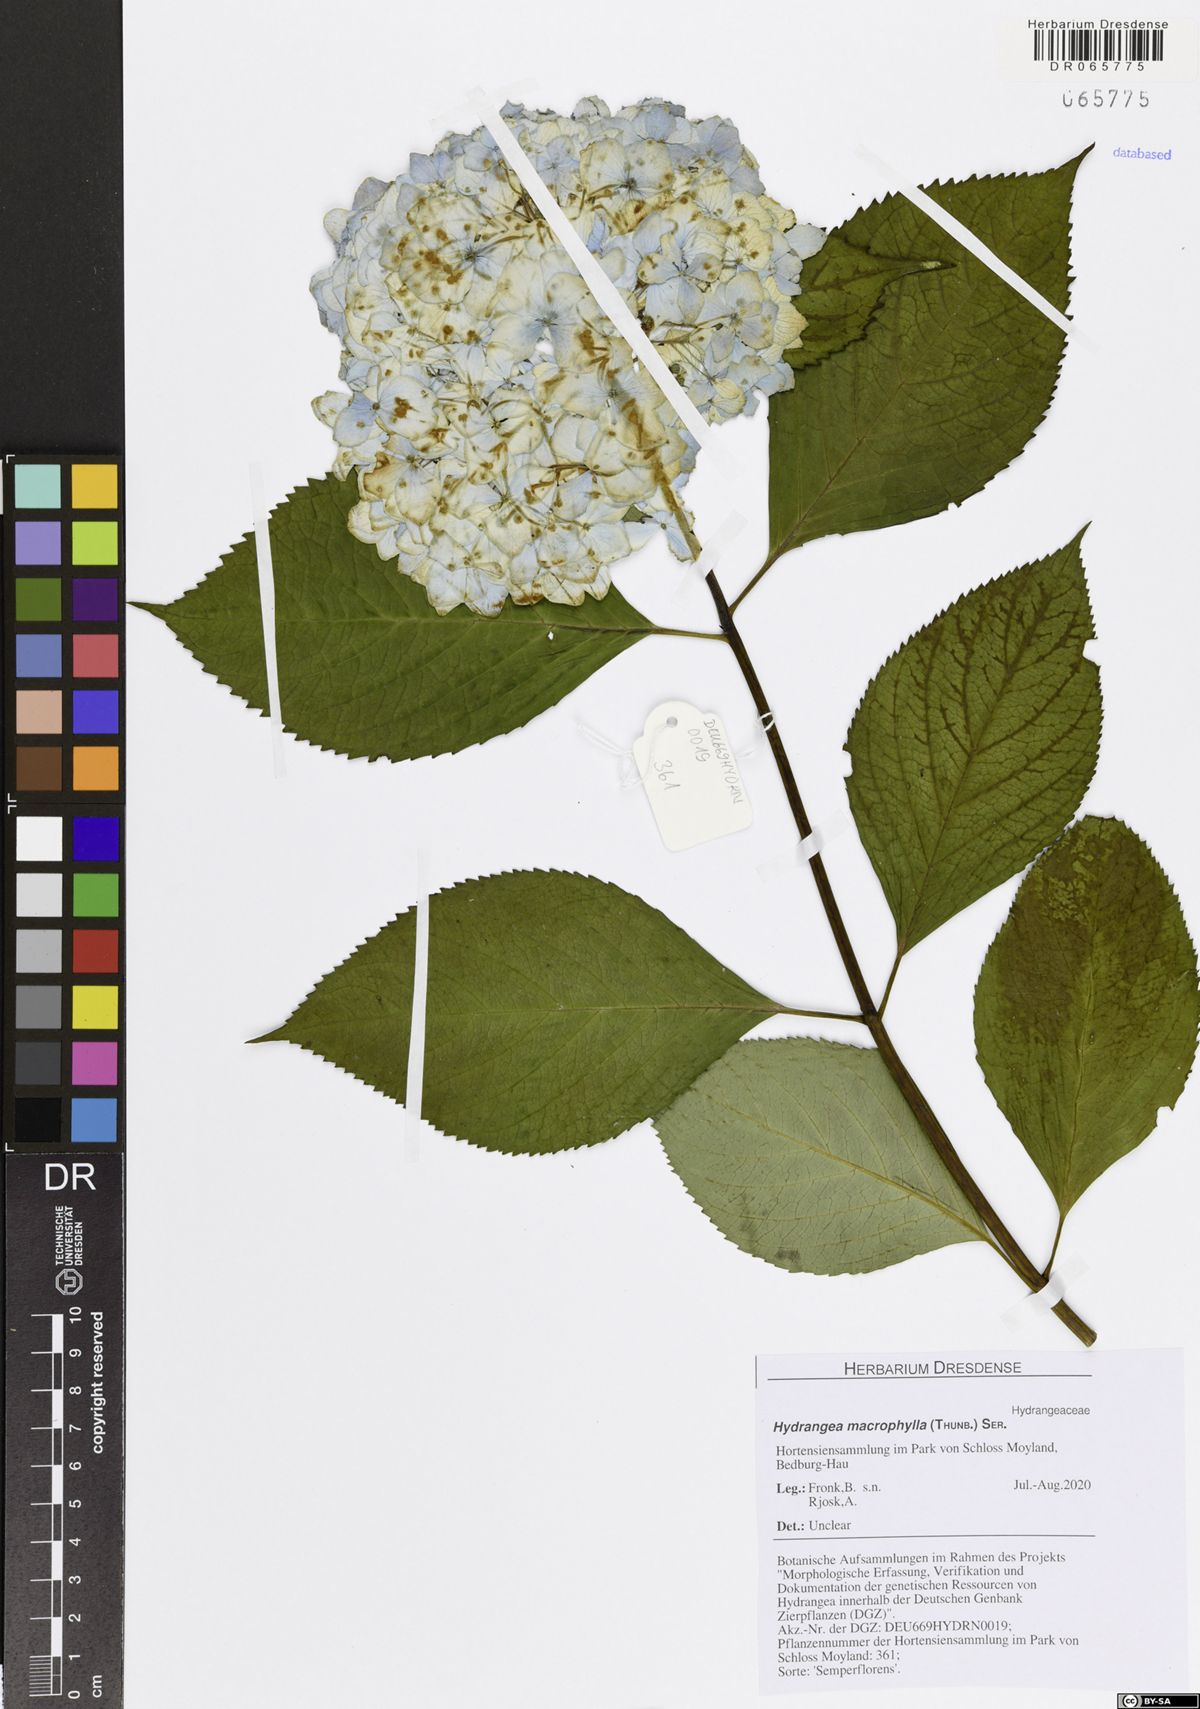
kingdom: Plantae
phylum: Tracheophyta
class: Magnoliopsida
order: Cornales
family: Hydrangeaceae
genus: Hydrangea
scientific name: Hydrangea macrophylla
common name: Hydrangea
